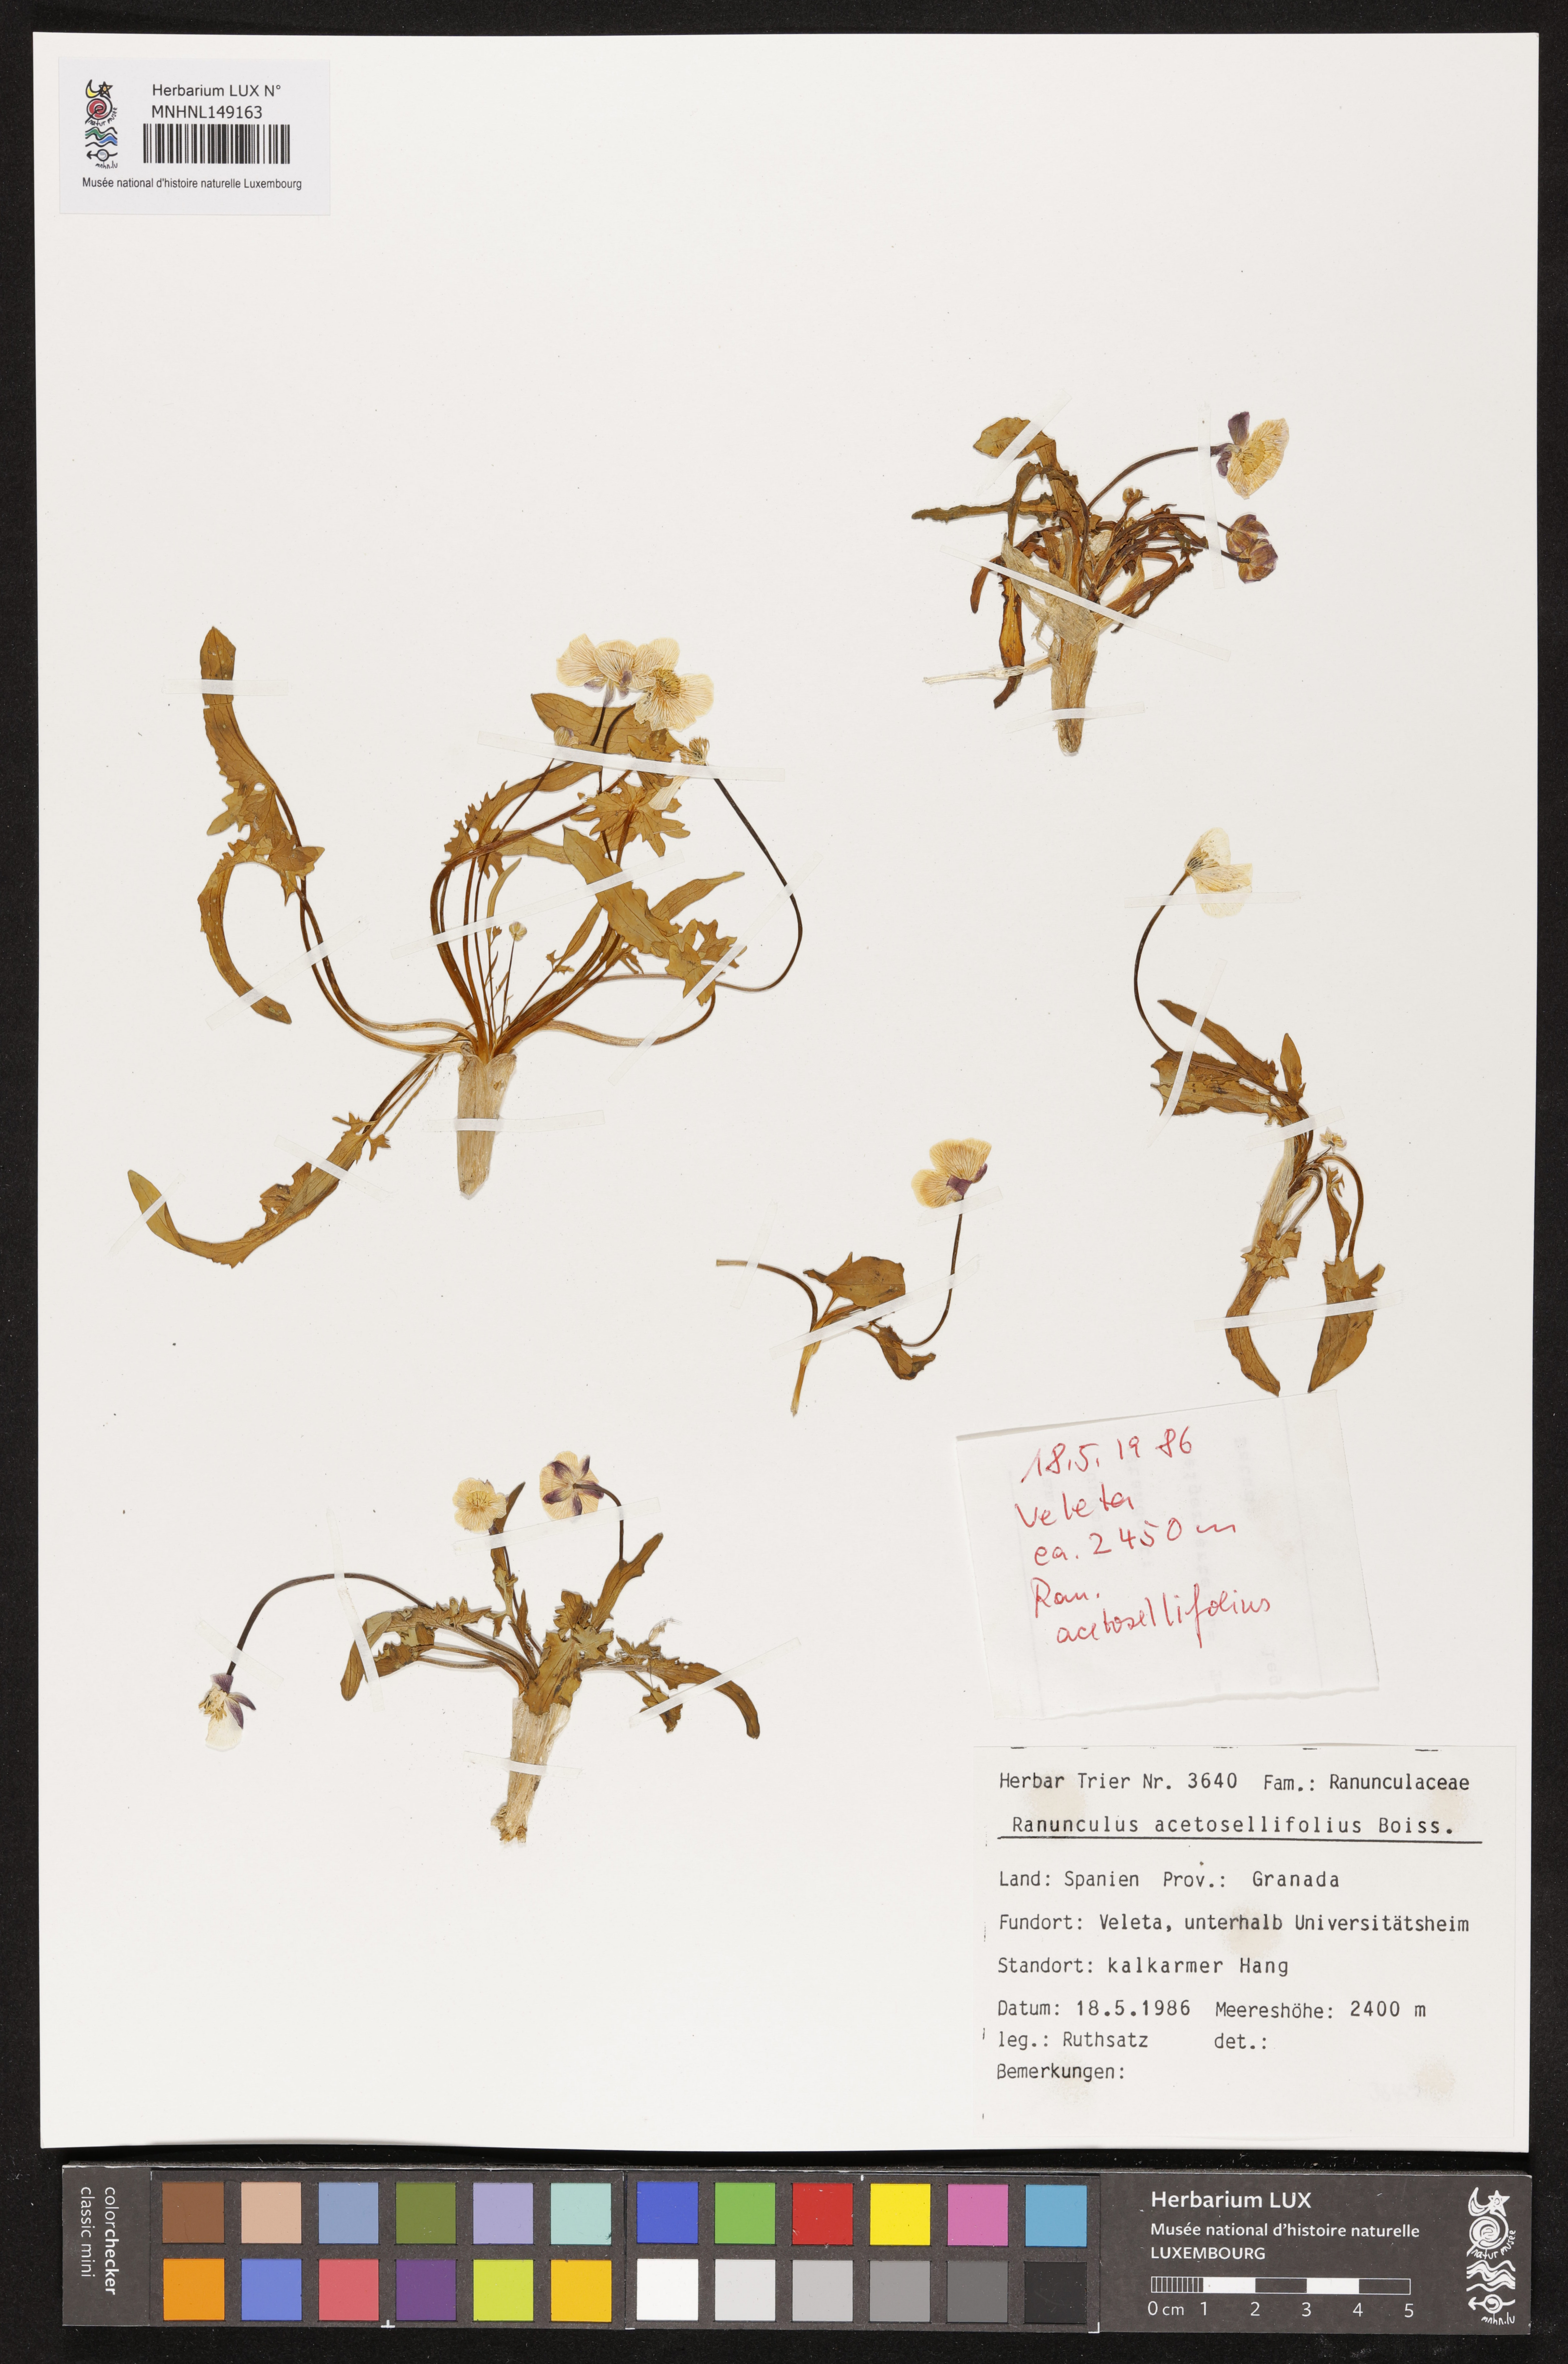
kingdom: Plantae
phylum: Tracheophyta
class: Magnoliopsida
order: Ranunculales
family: Ranunculaceae
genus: Ranunculus
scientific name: Ranunculus acetosellifolius
